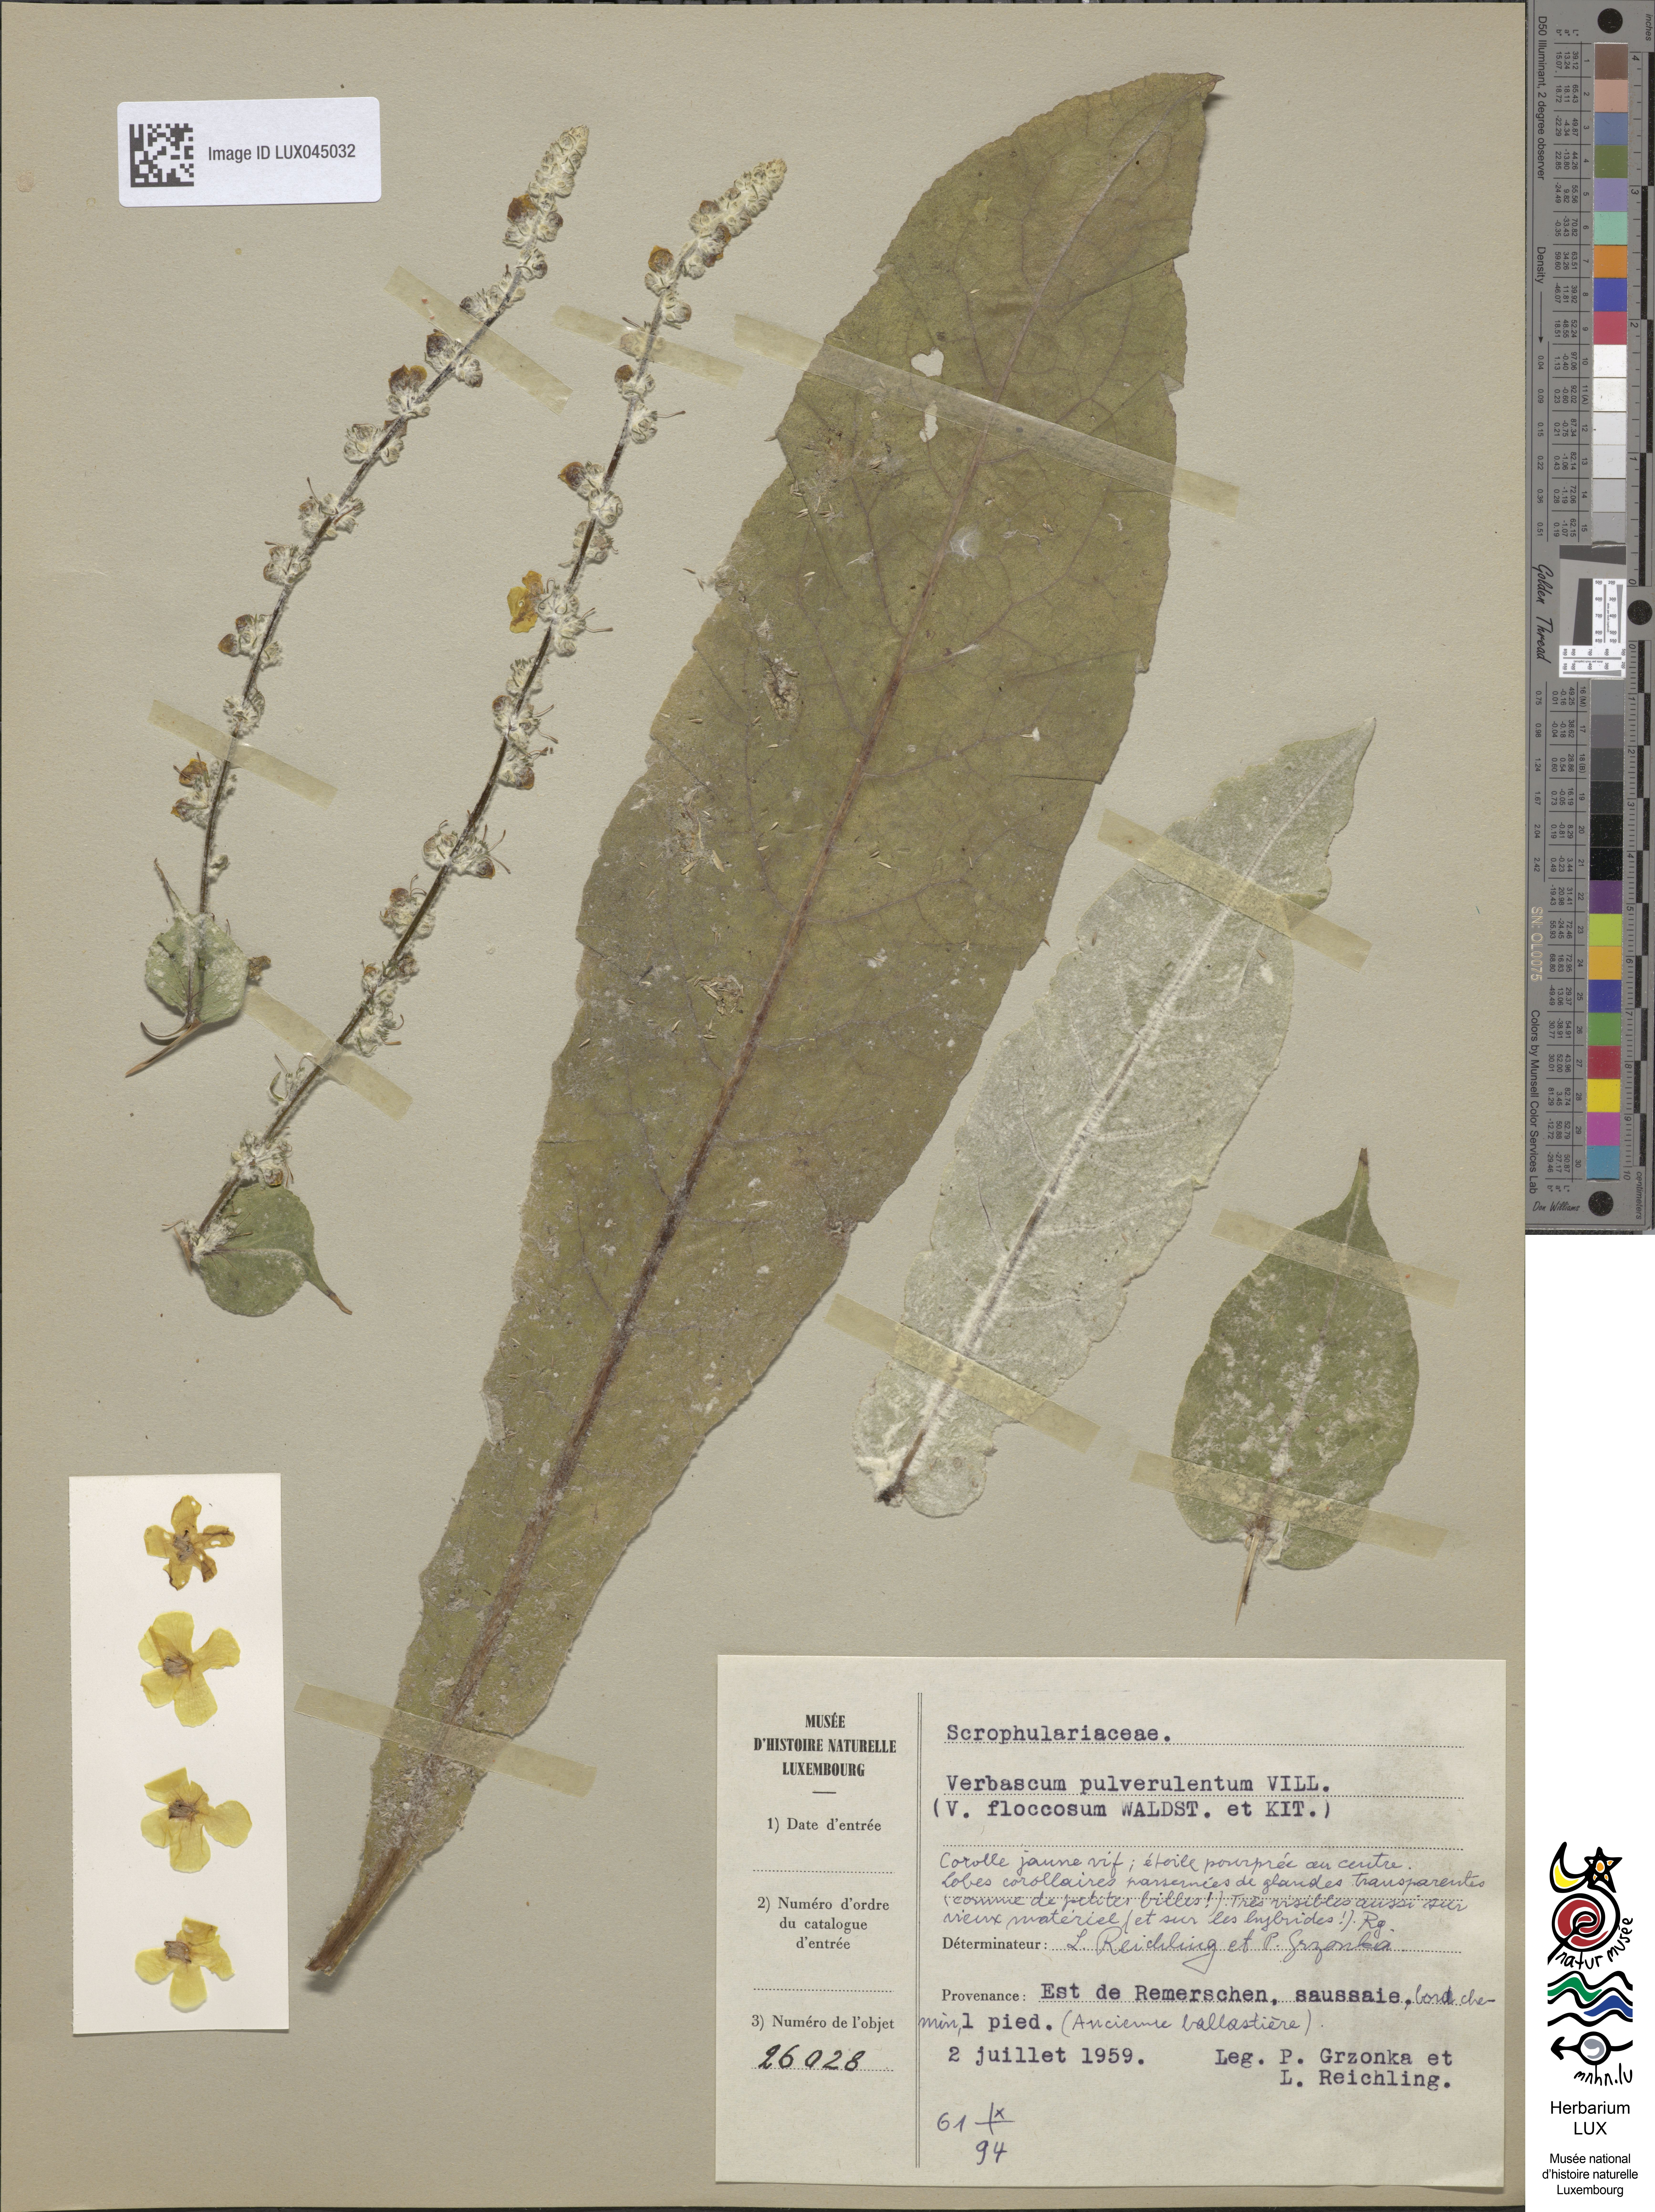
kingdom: Plantae
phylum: Tracheophyta
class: Magnoliopsida
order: Lamiales
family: Scrophulariaceae
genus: Verbascum
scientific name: Verbascum pulverulentum
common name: Broad-leaf mullein
